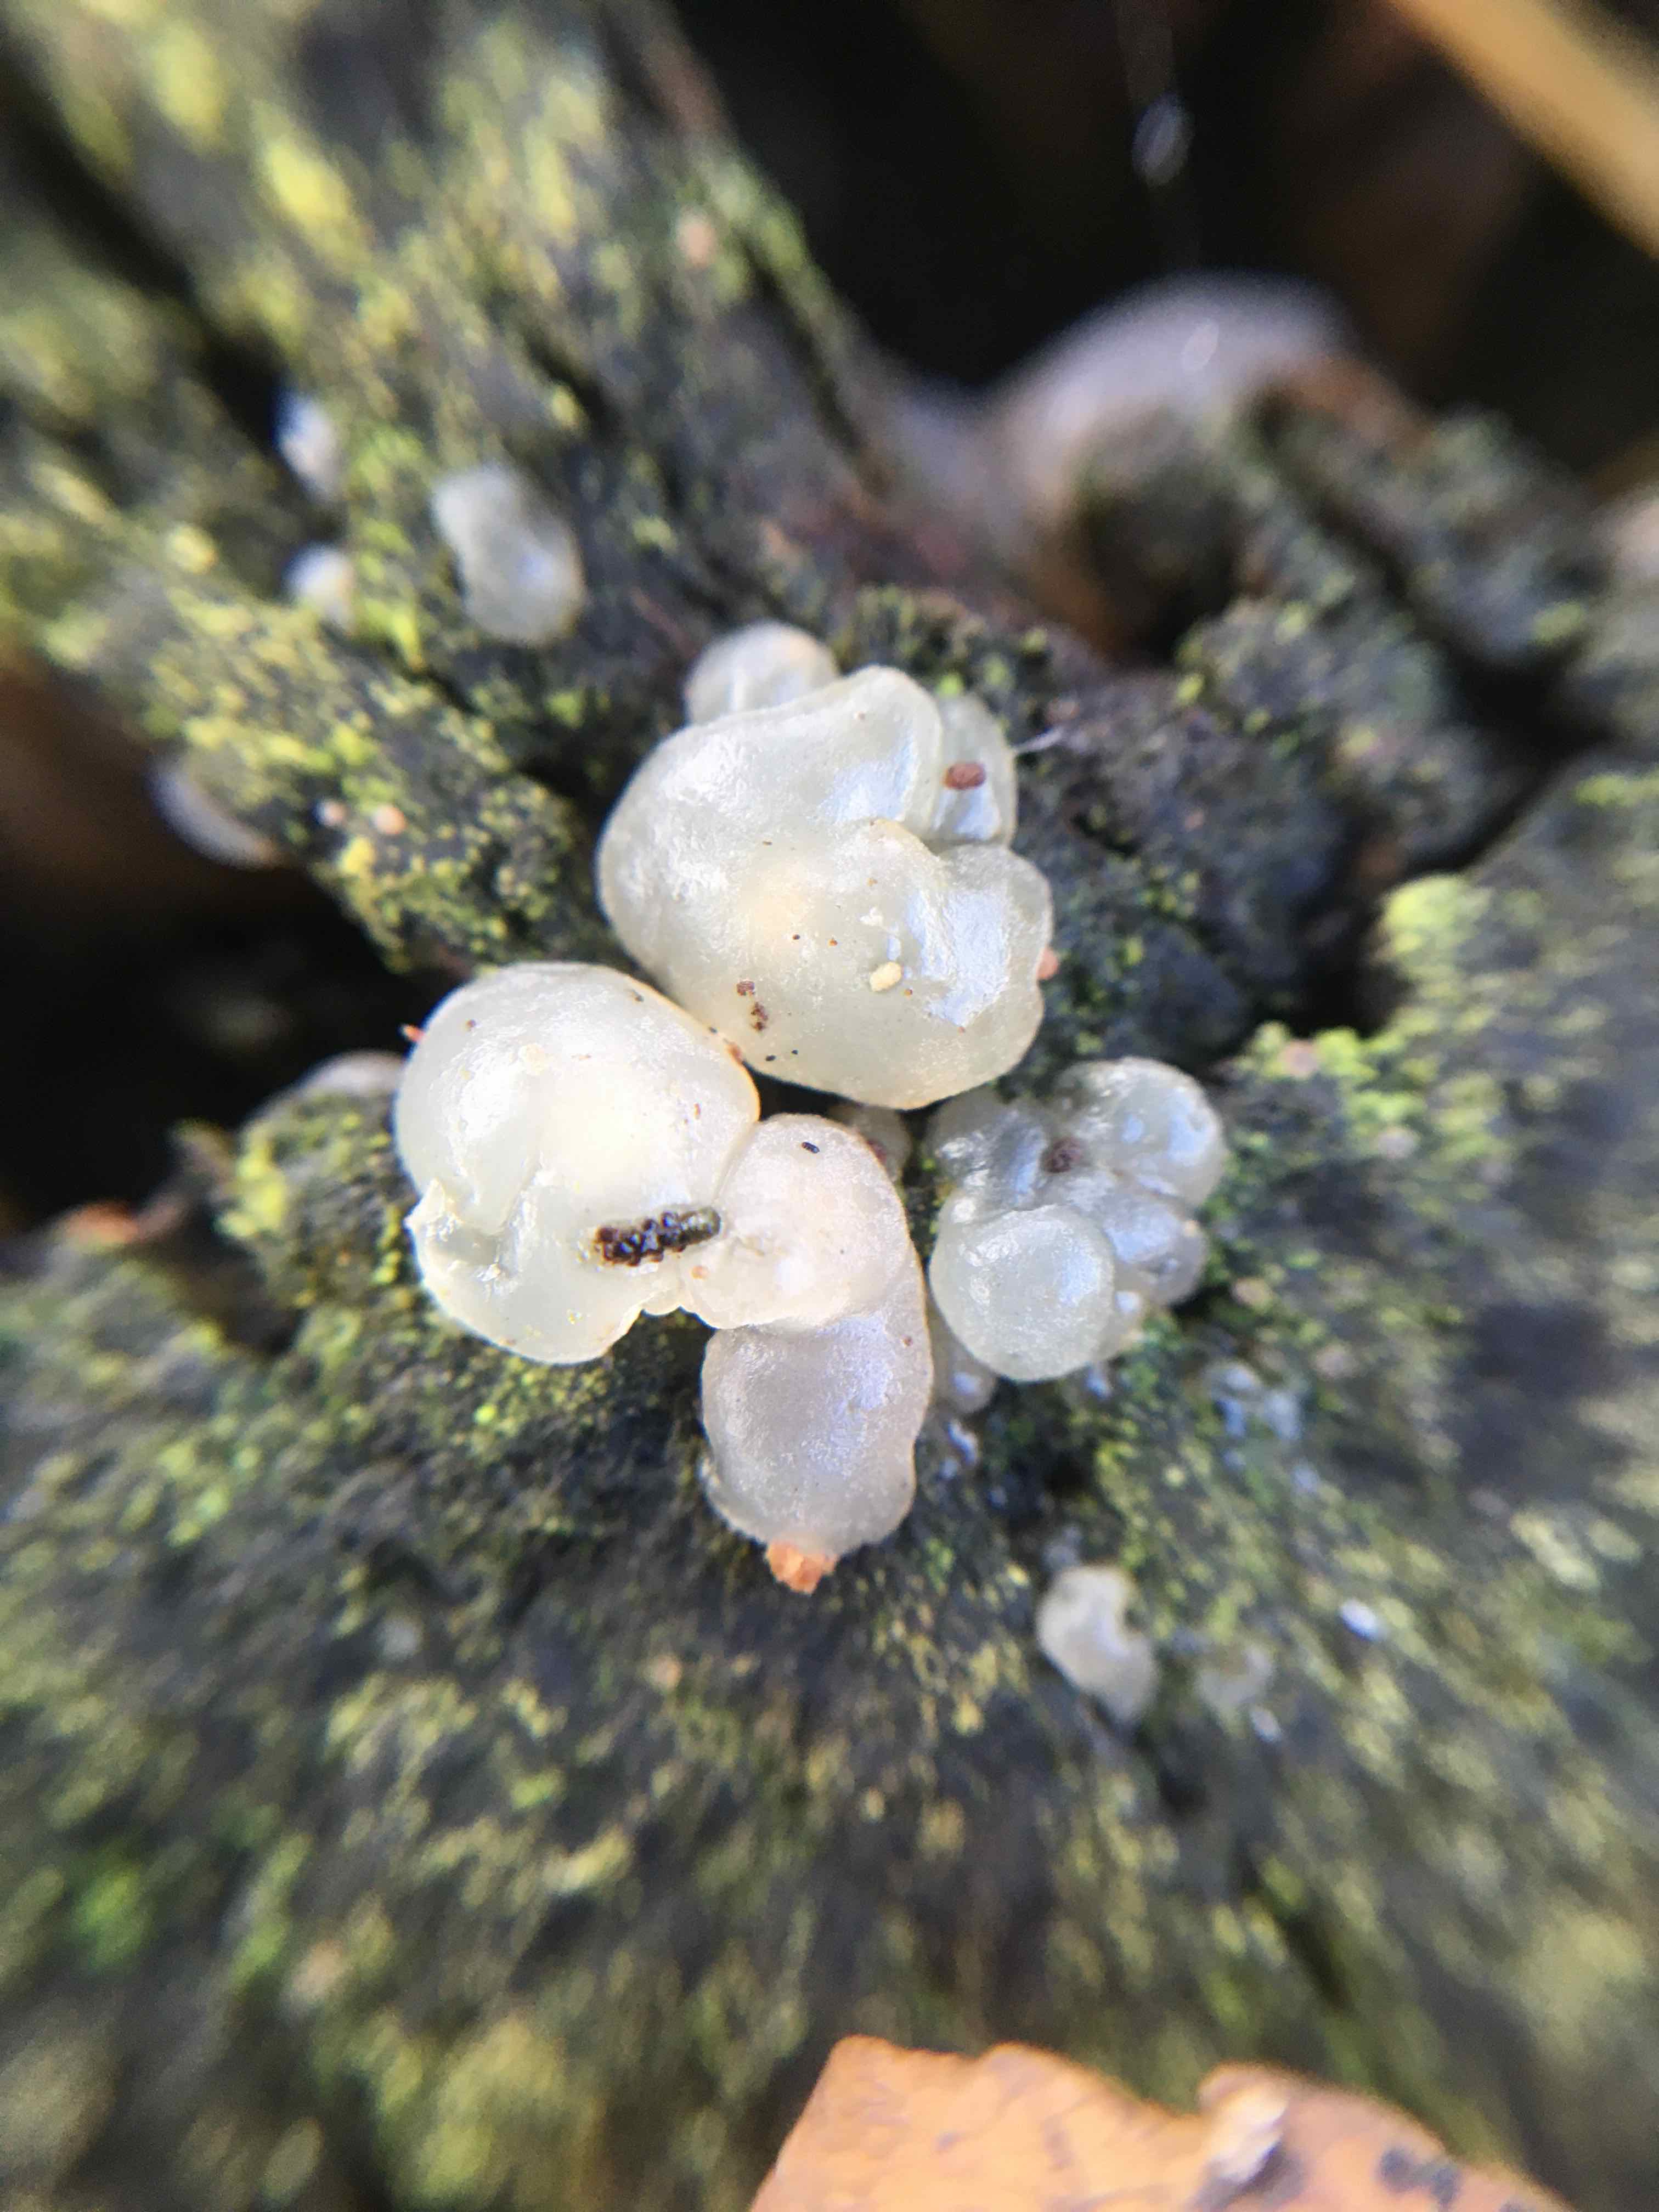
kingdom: Fungi
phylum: Basidiomycota
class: Agaricomycetes
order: Auriculariales
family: Hyaloriaceae
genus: Myxarium
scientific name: Myxarium nucleatum
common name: klar bævretop
